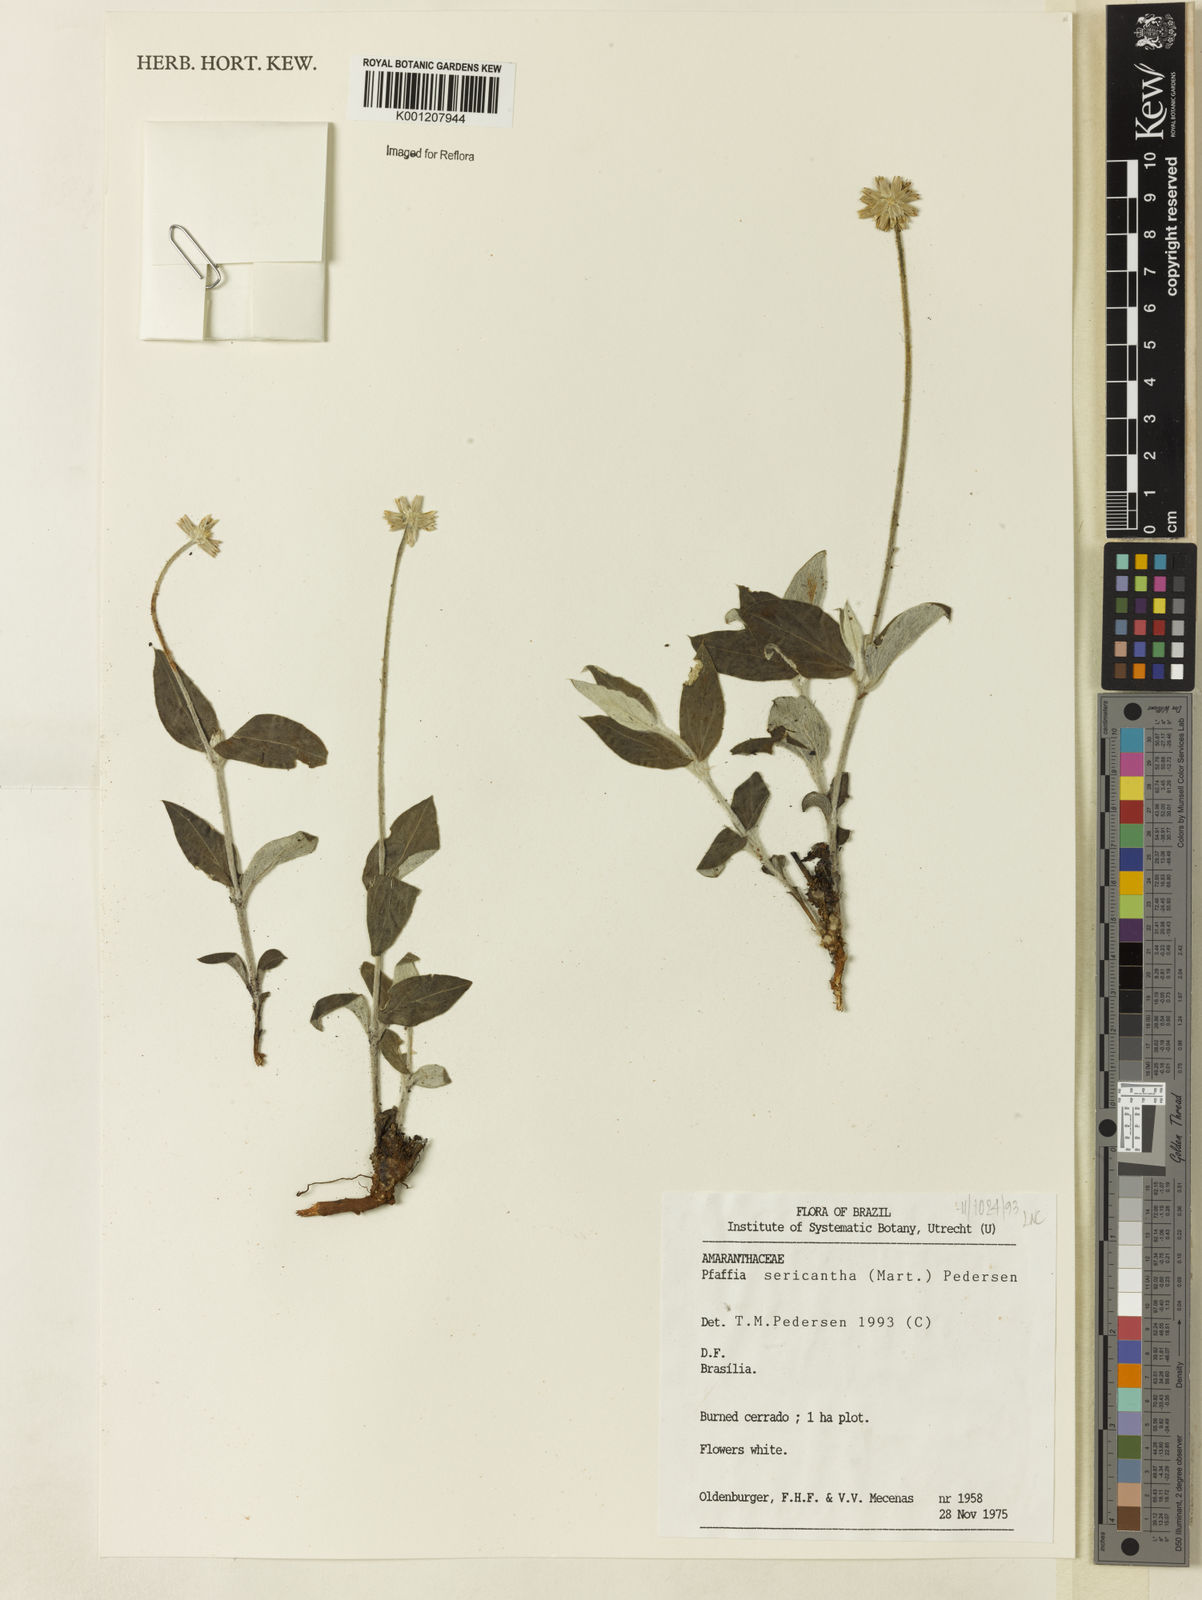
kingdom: Plantae
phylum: Tracheophyta
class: Magnoliopsida
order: Caryophyllales
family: Amaranthaceae
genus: Pfaffia
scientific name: Pfaffia sericantha
